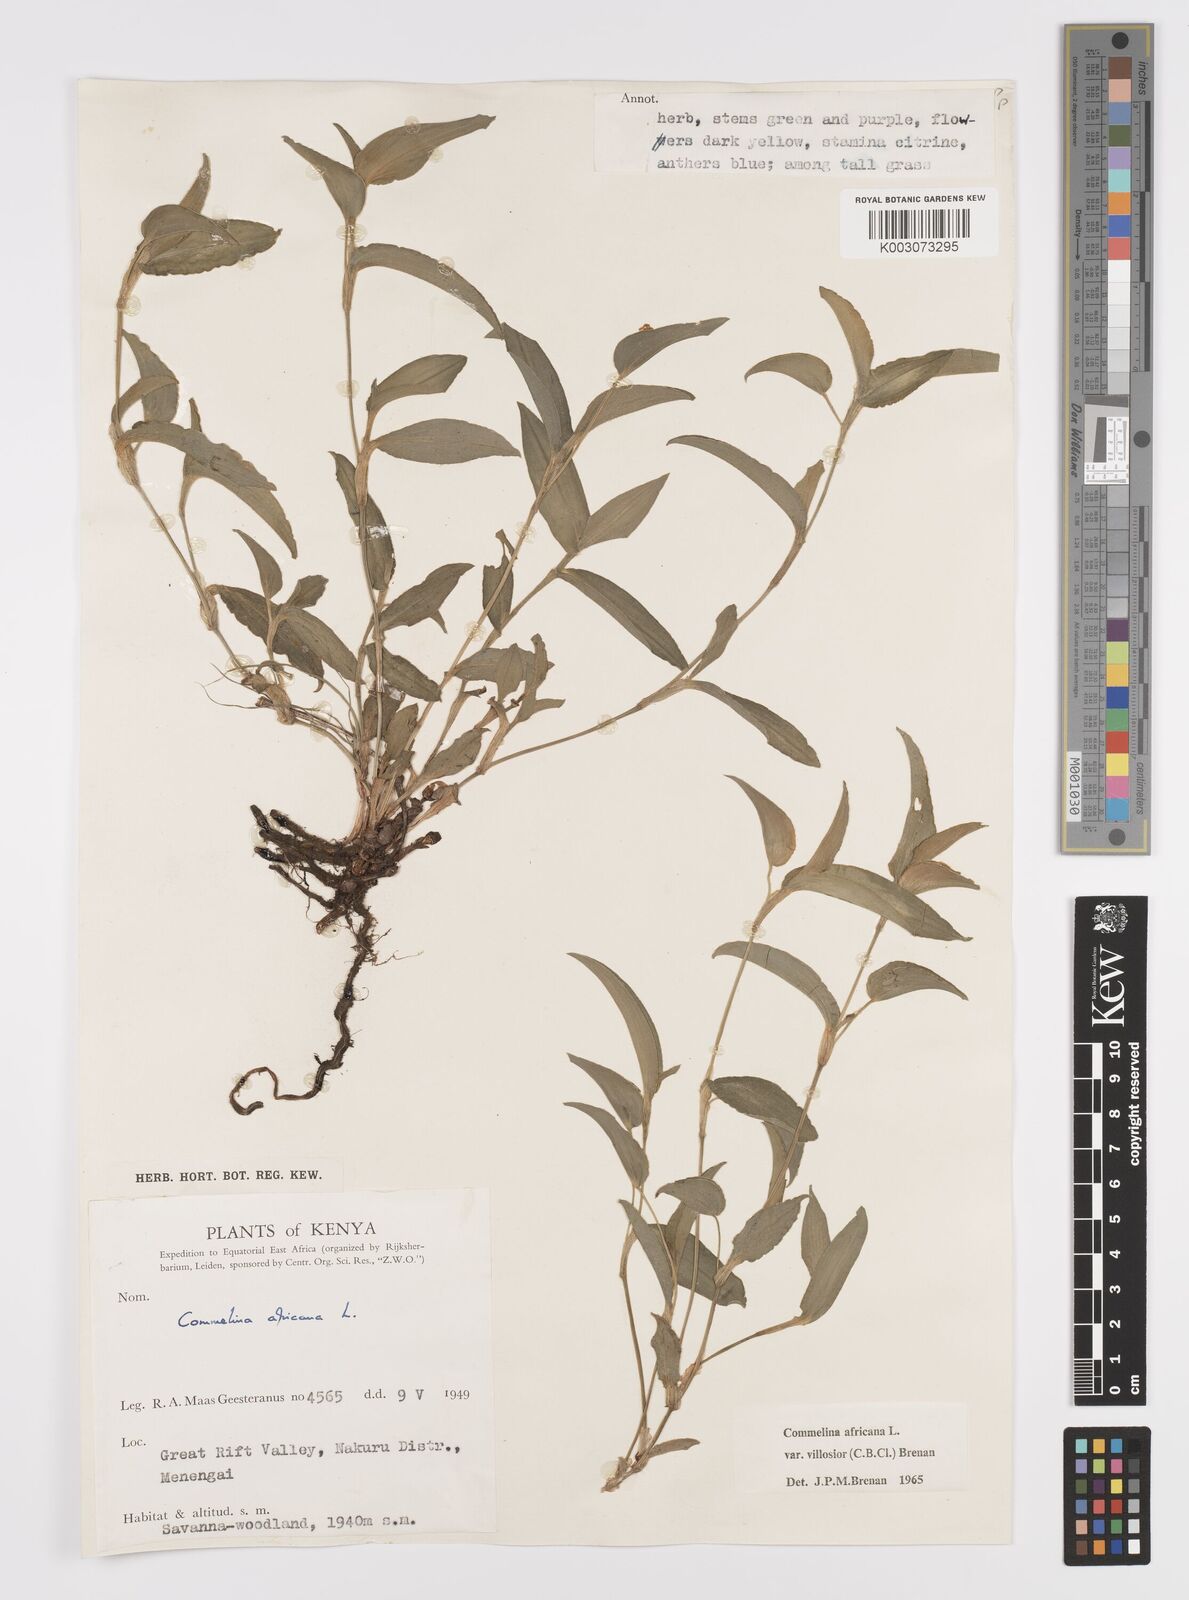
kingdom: Plantae
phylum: Tracheophyta
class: Liliopsida
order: Commelinales
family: Commelinaceae
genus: Commelina
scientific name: Commelina africana
